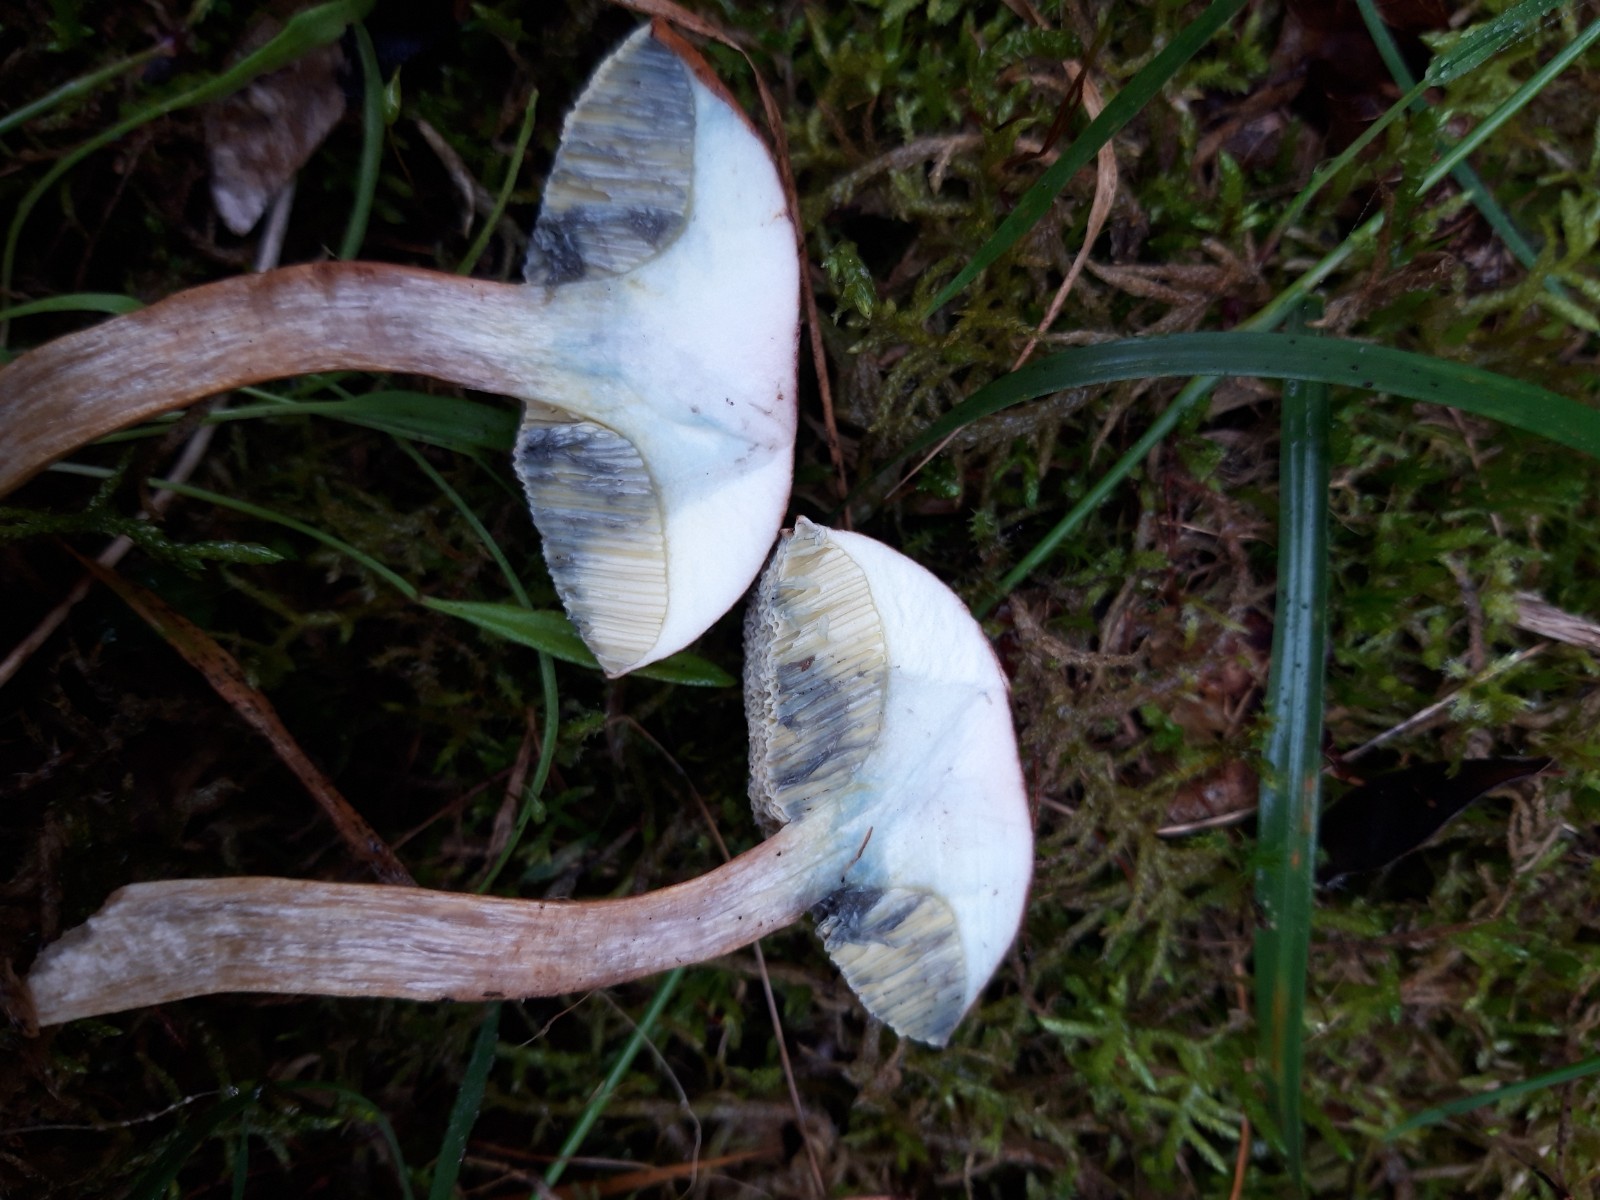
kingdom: Fungi
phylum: Basidiomycota
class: Agaricomycetes
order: Boletales
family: Boletaceae
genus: Imleria
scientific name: Imleria badia
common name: brunstokket rørhat
